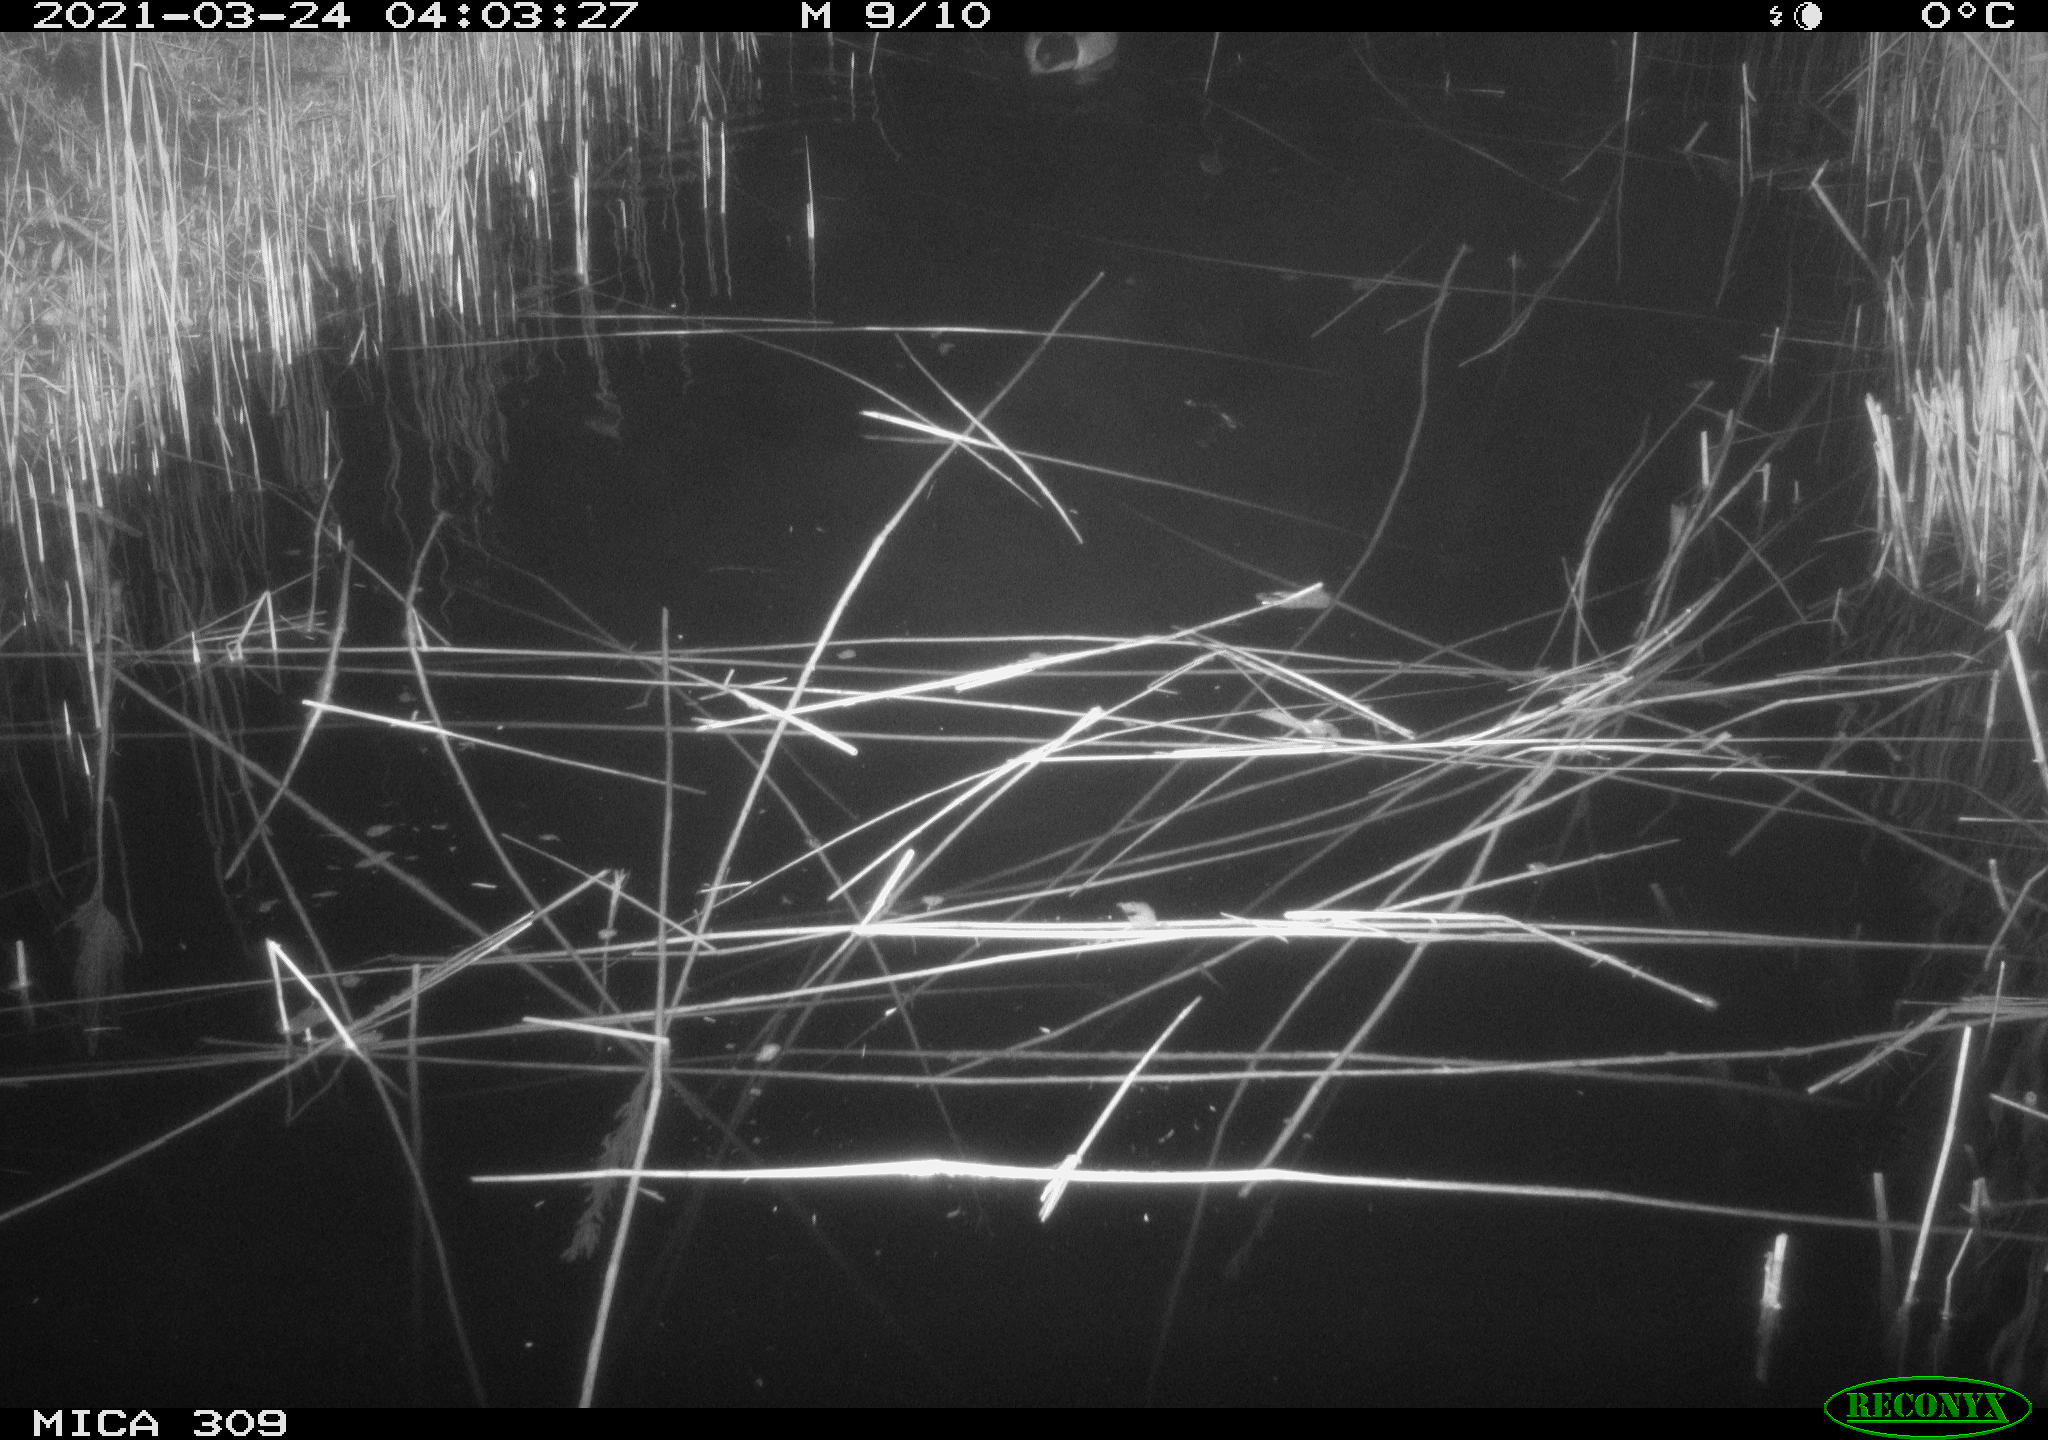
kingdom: Animalia
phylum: Chordata
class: Aves
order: Anseriformes
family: Anatidae
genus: Anas
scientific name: Anas platyrhynchos
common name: Mallard
